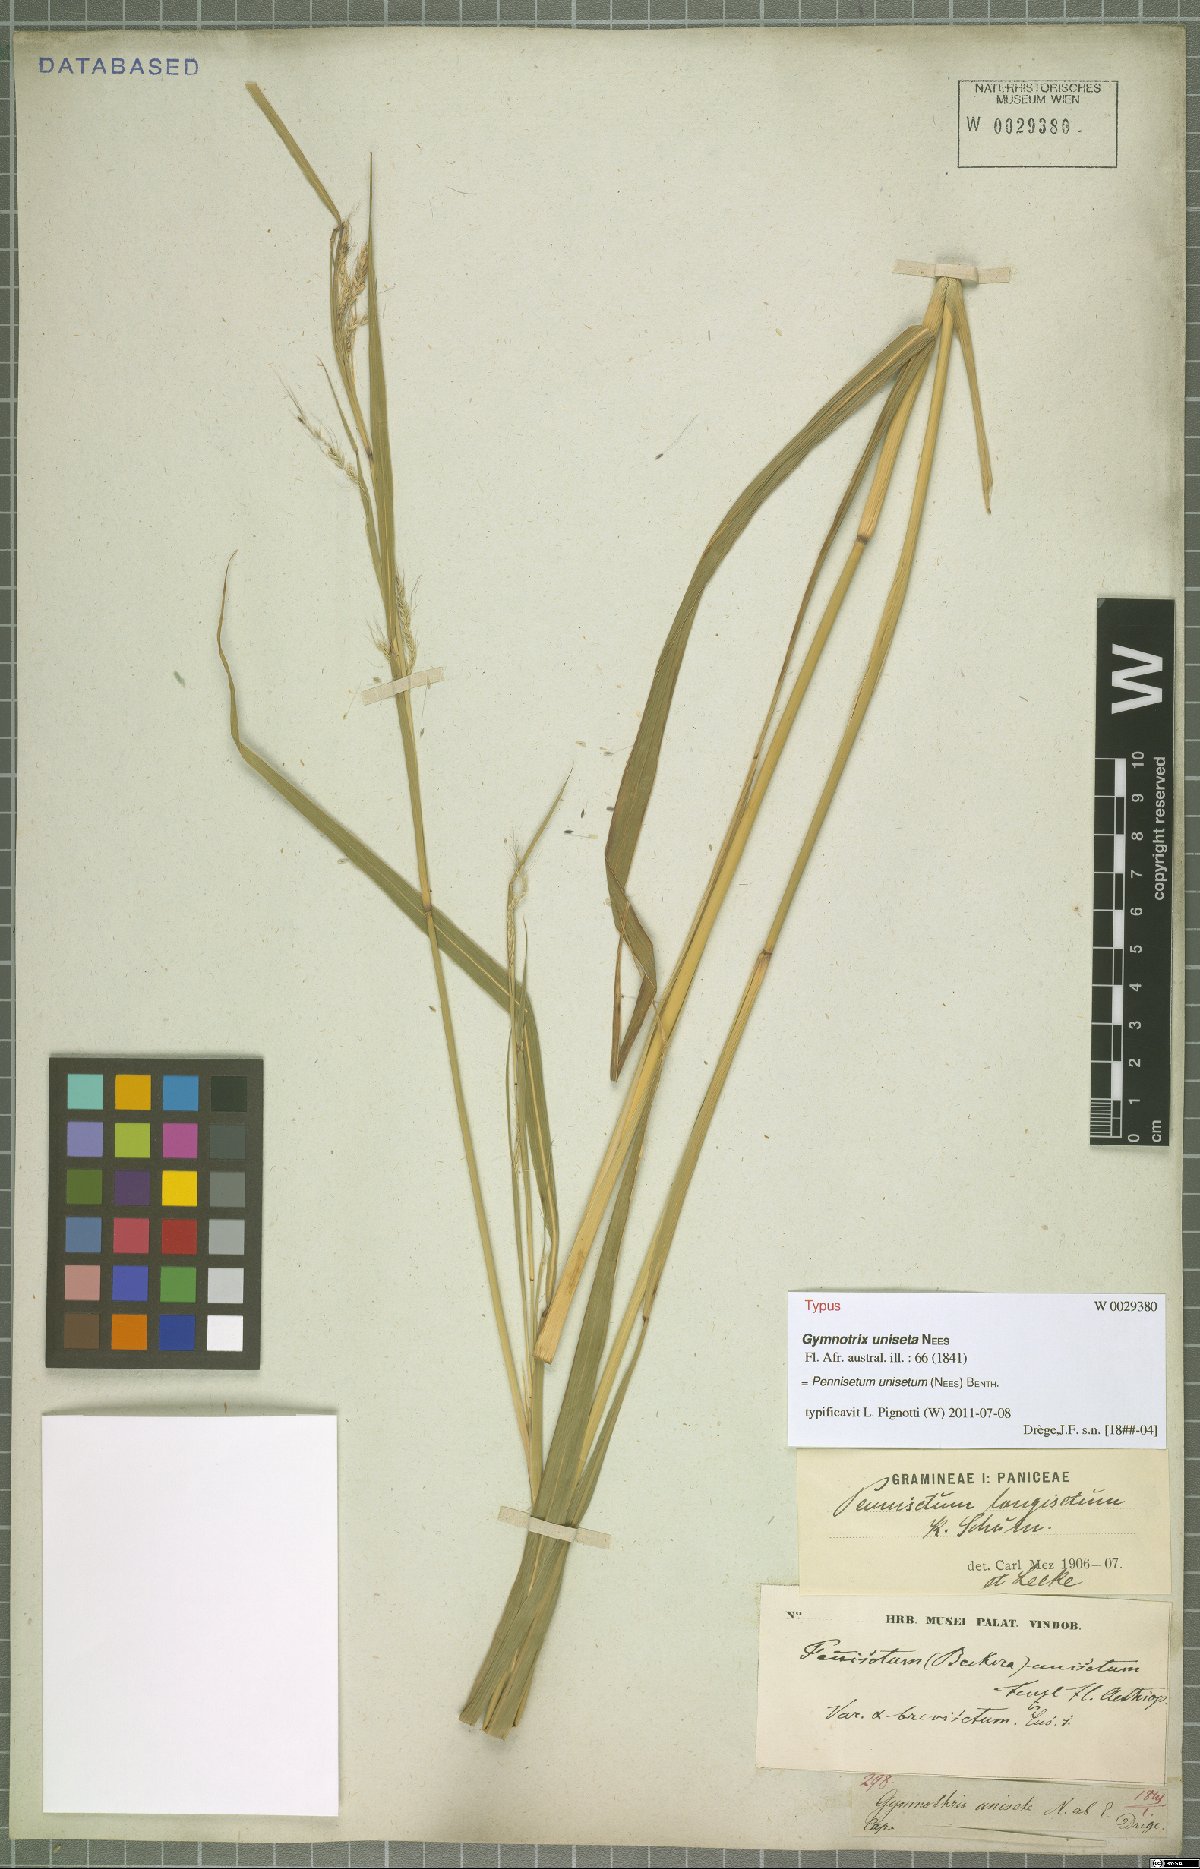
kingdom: Plantae
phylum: Tracheophyta
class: Liliopsida
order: Poales
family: Poaceae
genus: Cenchrus
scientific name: Cenchrus unisetus
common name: Natal grass
